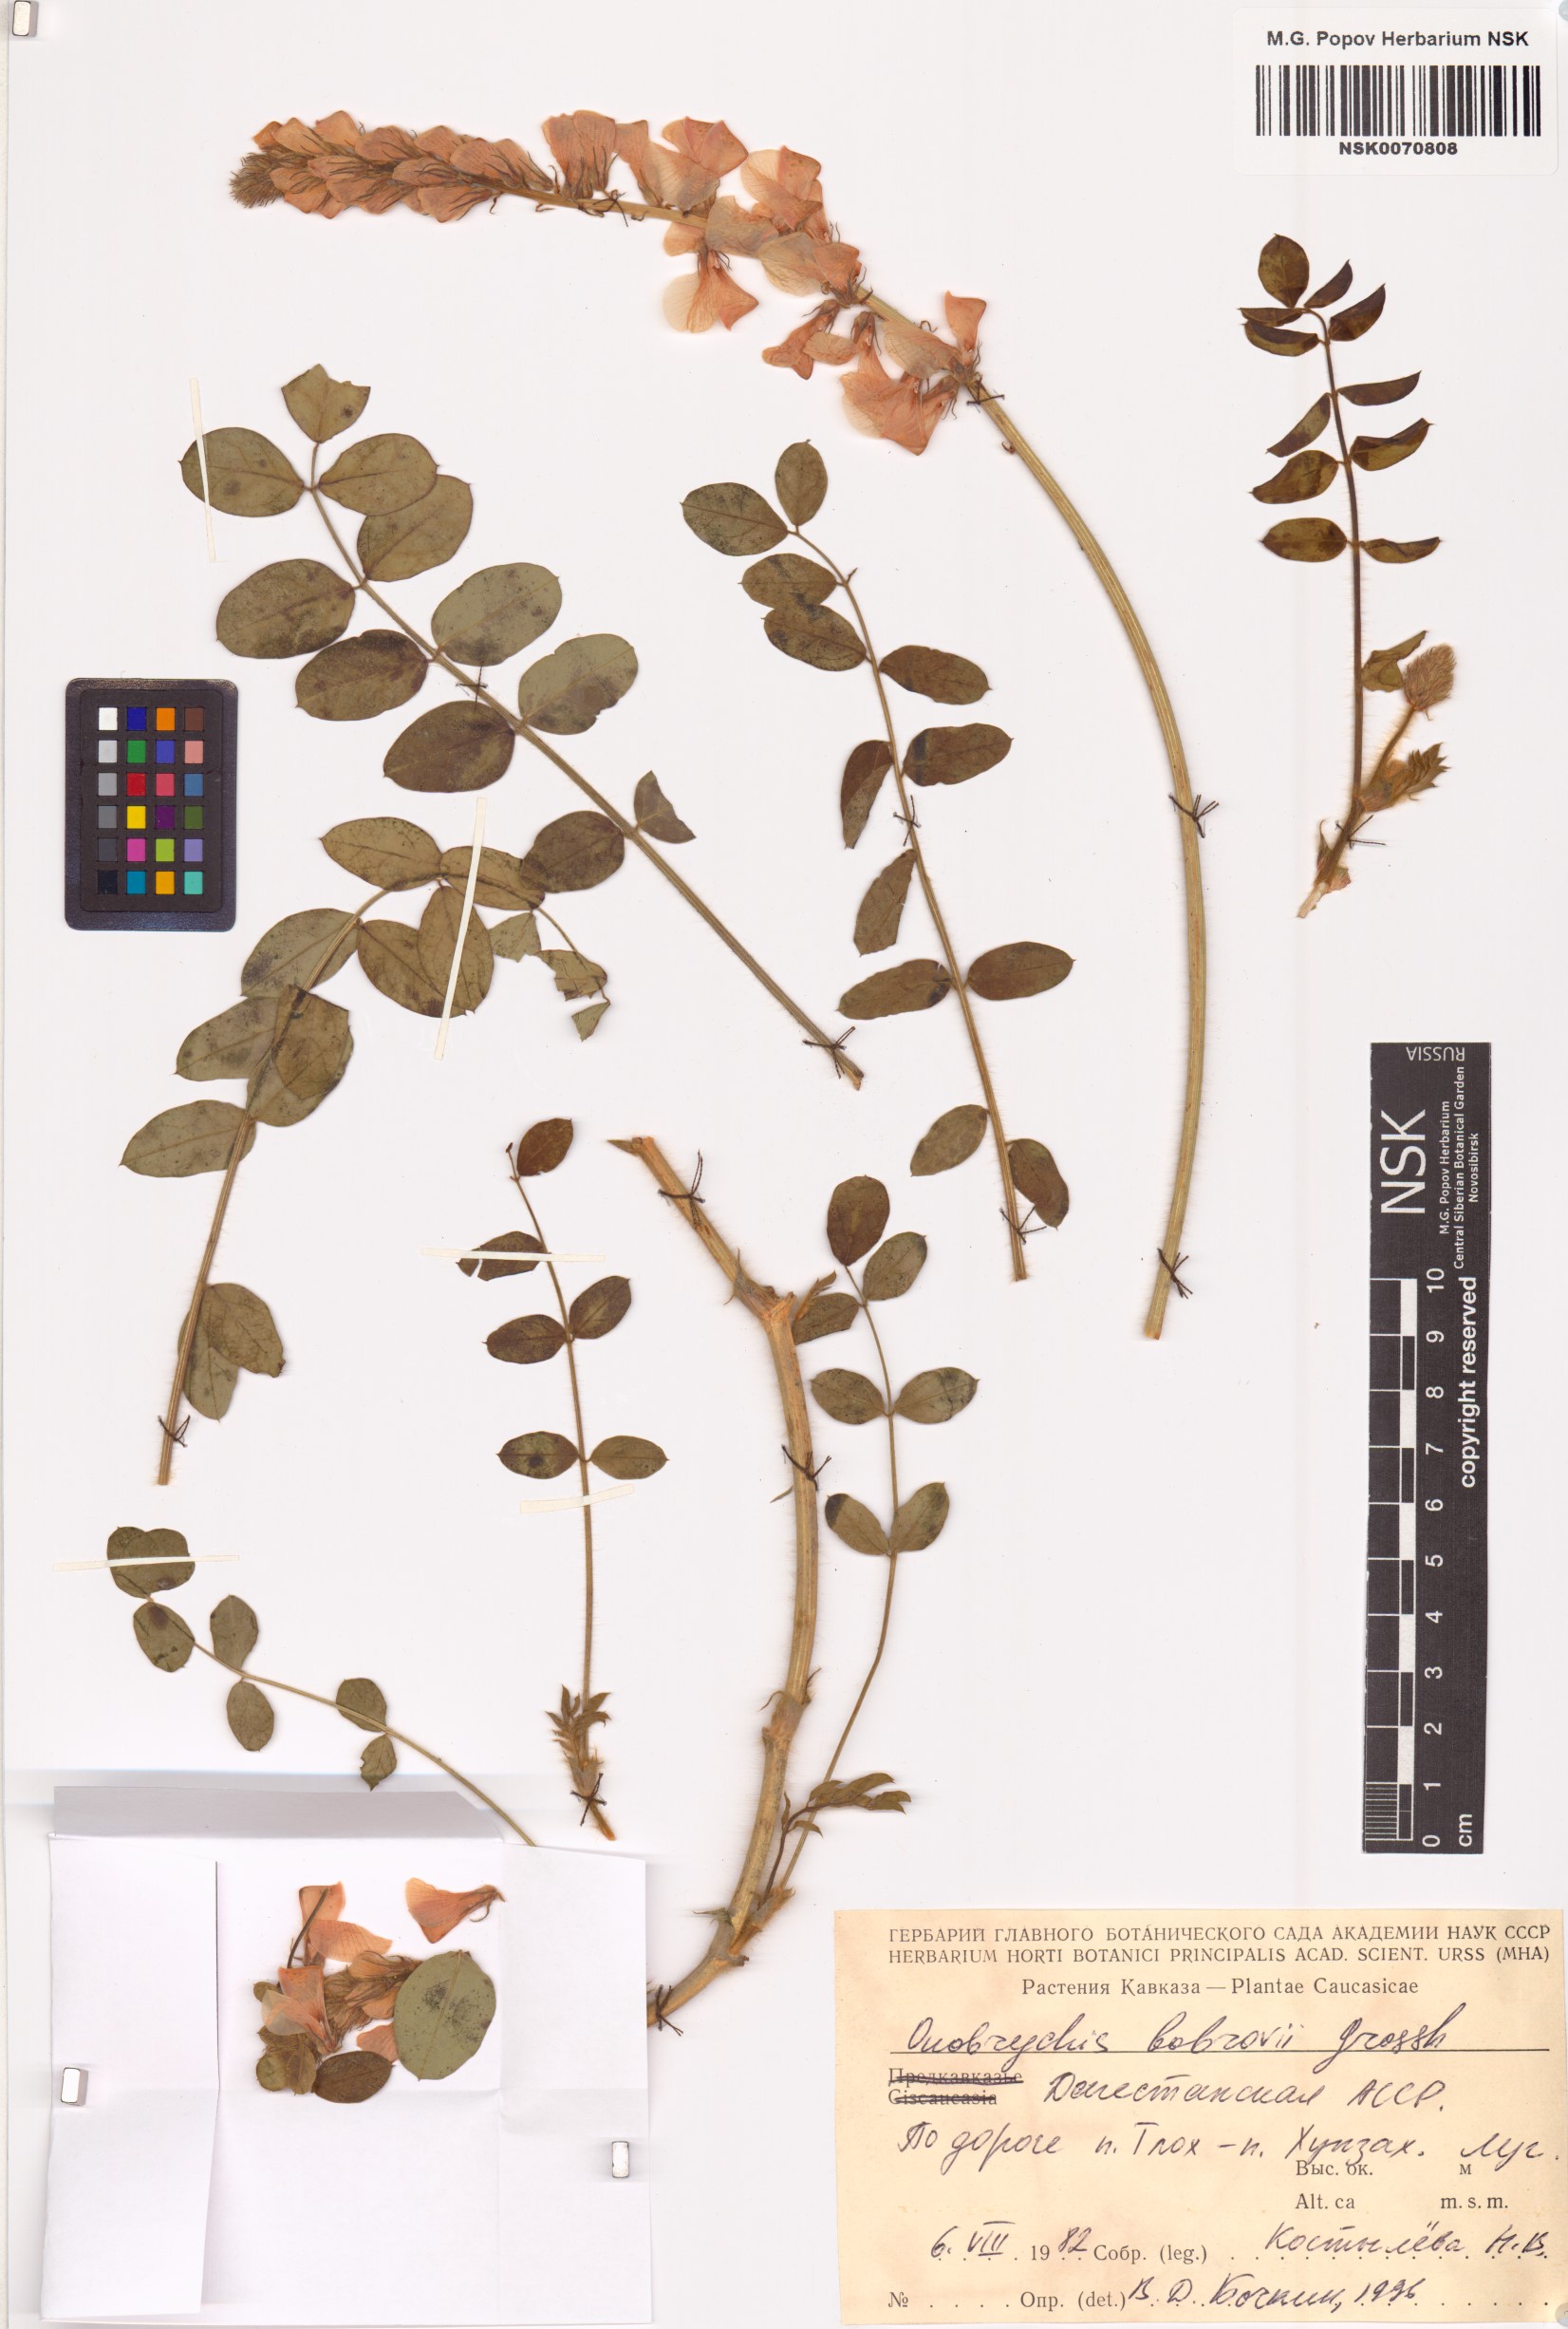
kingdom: Plantae
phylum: Tracheophyta
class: Magnoliopsida
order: Fabales
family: Fabaceae
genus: Onobrychis
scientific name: Onobrychis bobrovii
